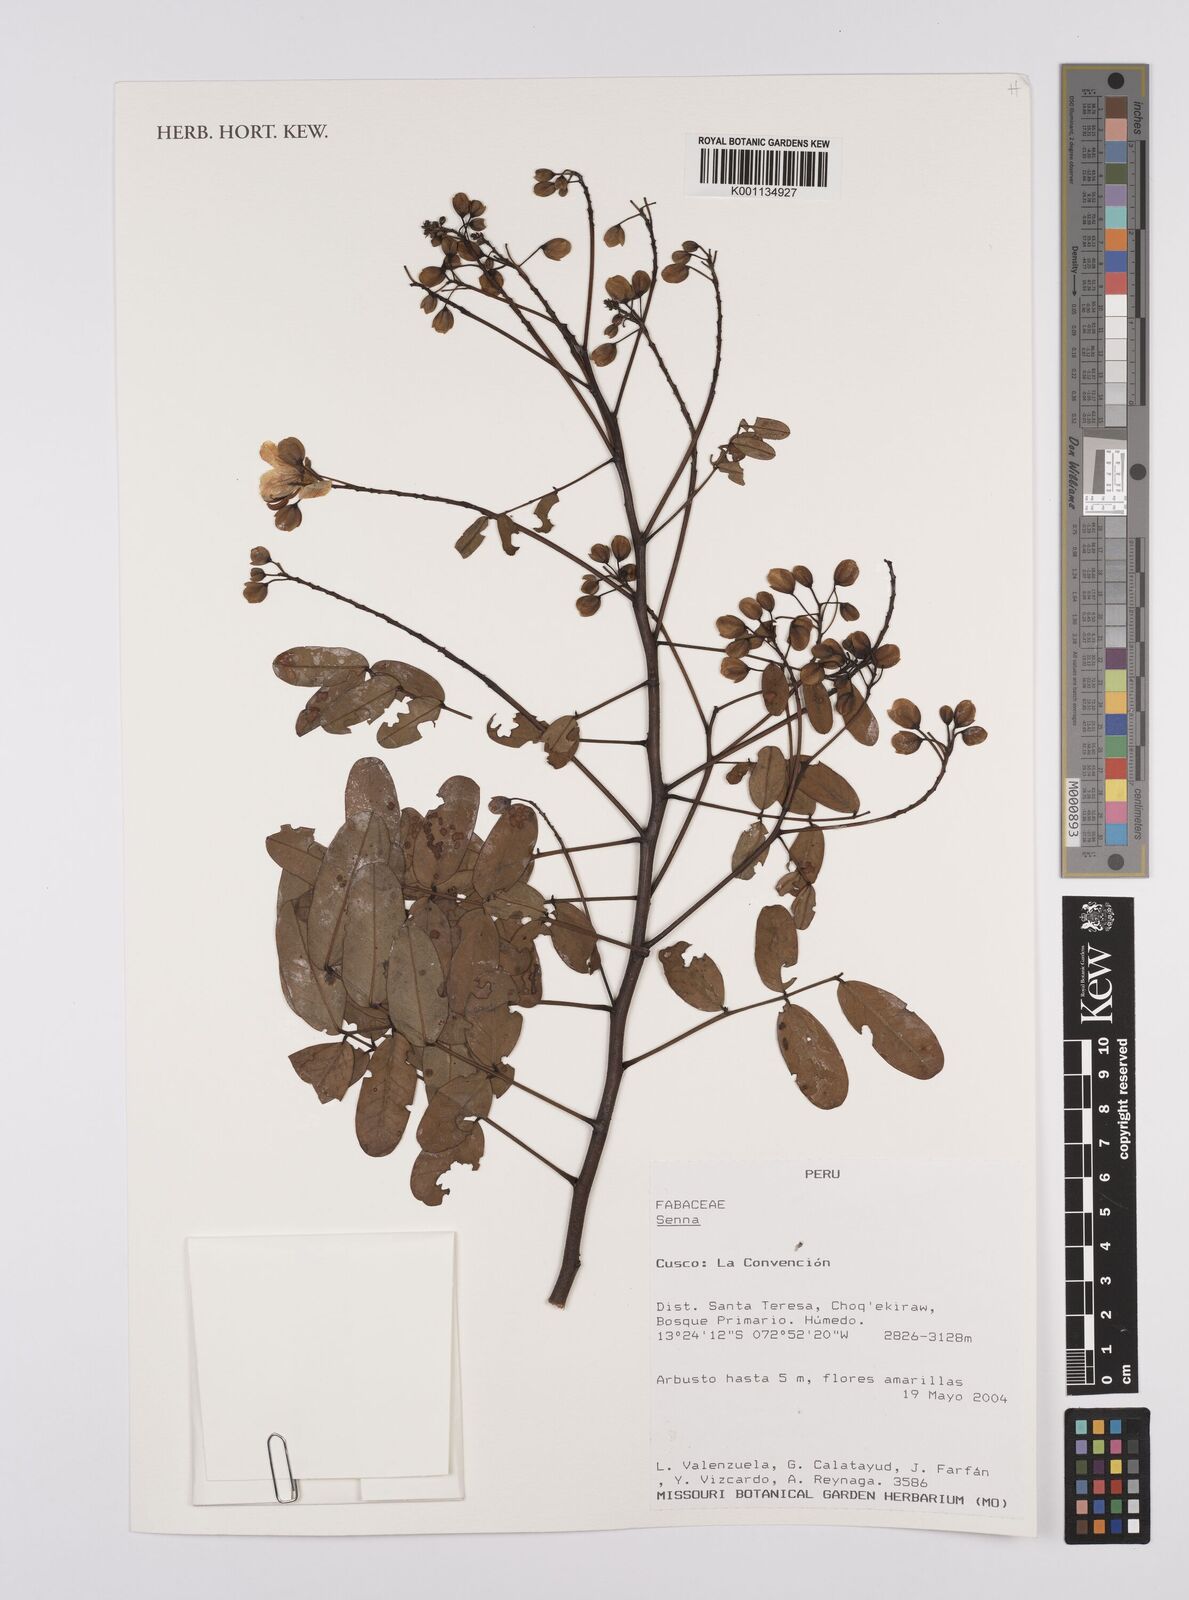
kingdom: Plantae
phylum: Tracheophyta
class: Magnoliopsida
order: Fabales
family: Fabaceae
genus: Senna
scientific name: Senna
